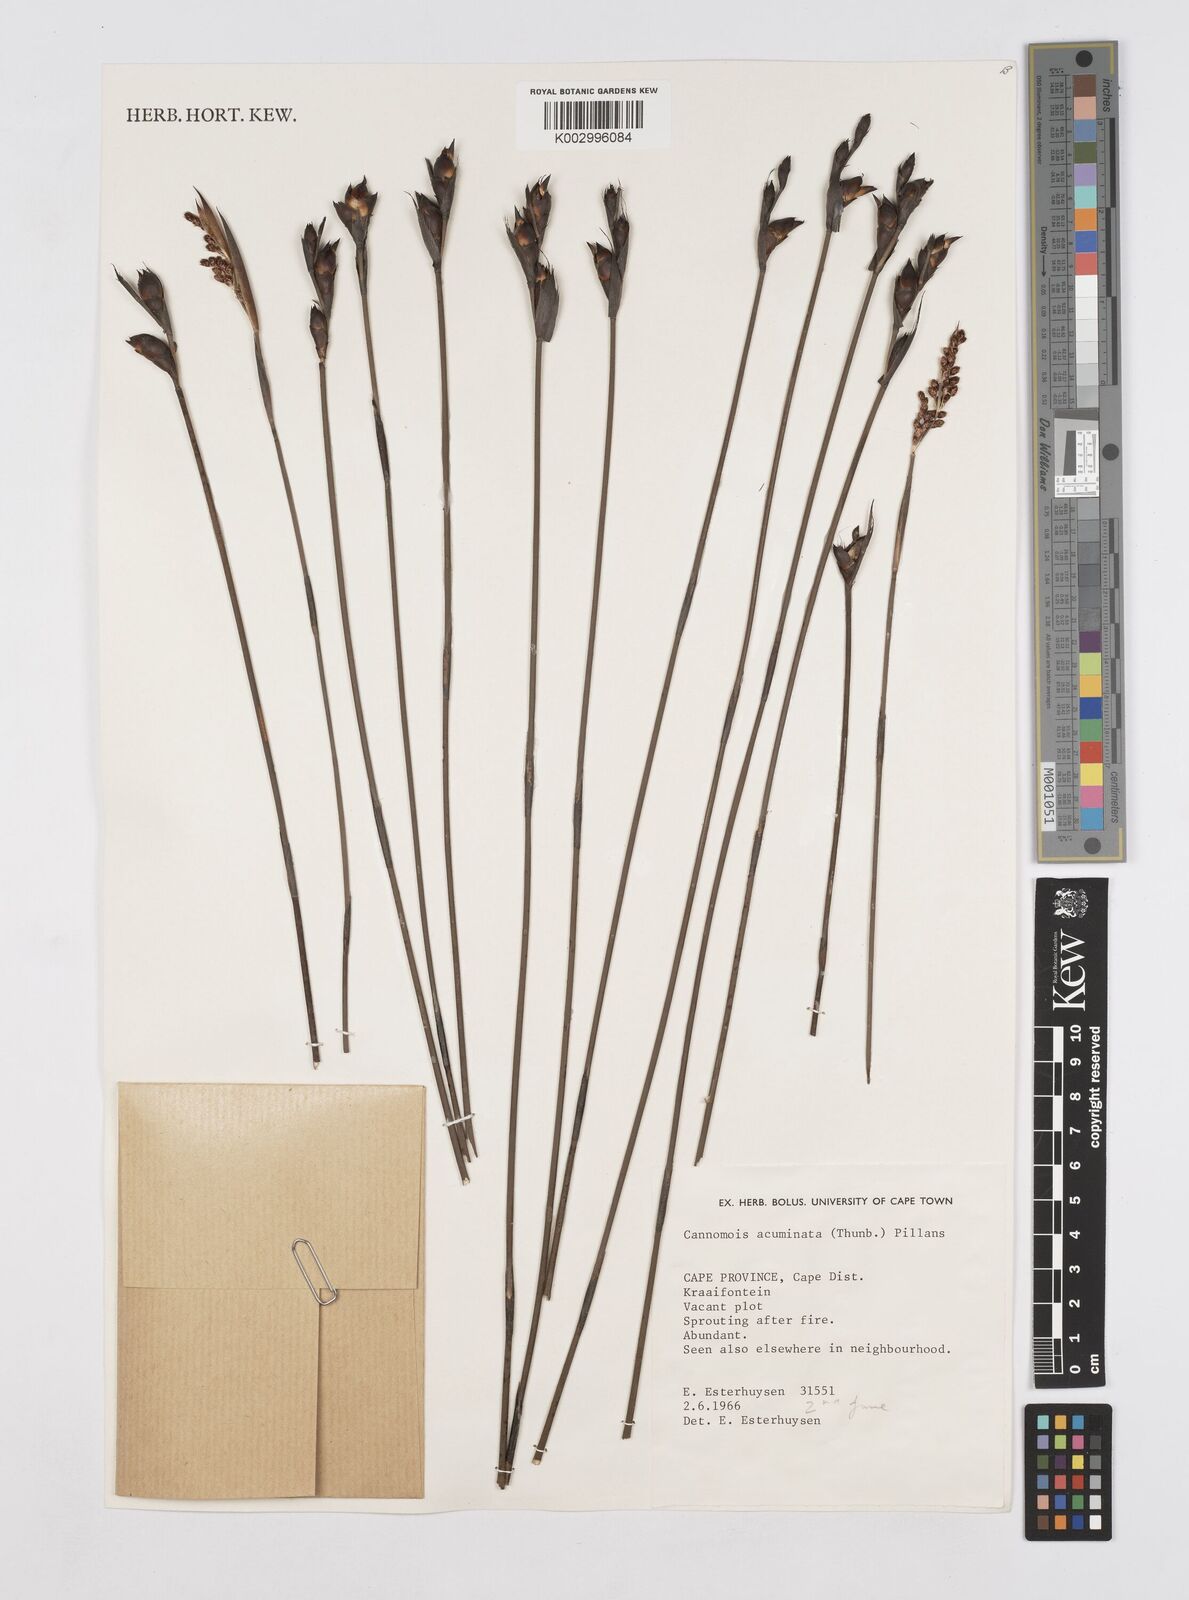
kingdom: Plantae
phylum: Tracheophyta
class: Liliopsida
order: Poales
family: Restionaceae
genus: Cannomois
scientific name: Cannomois parviflora
